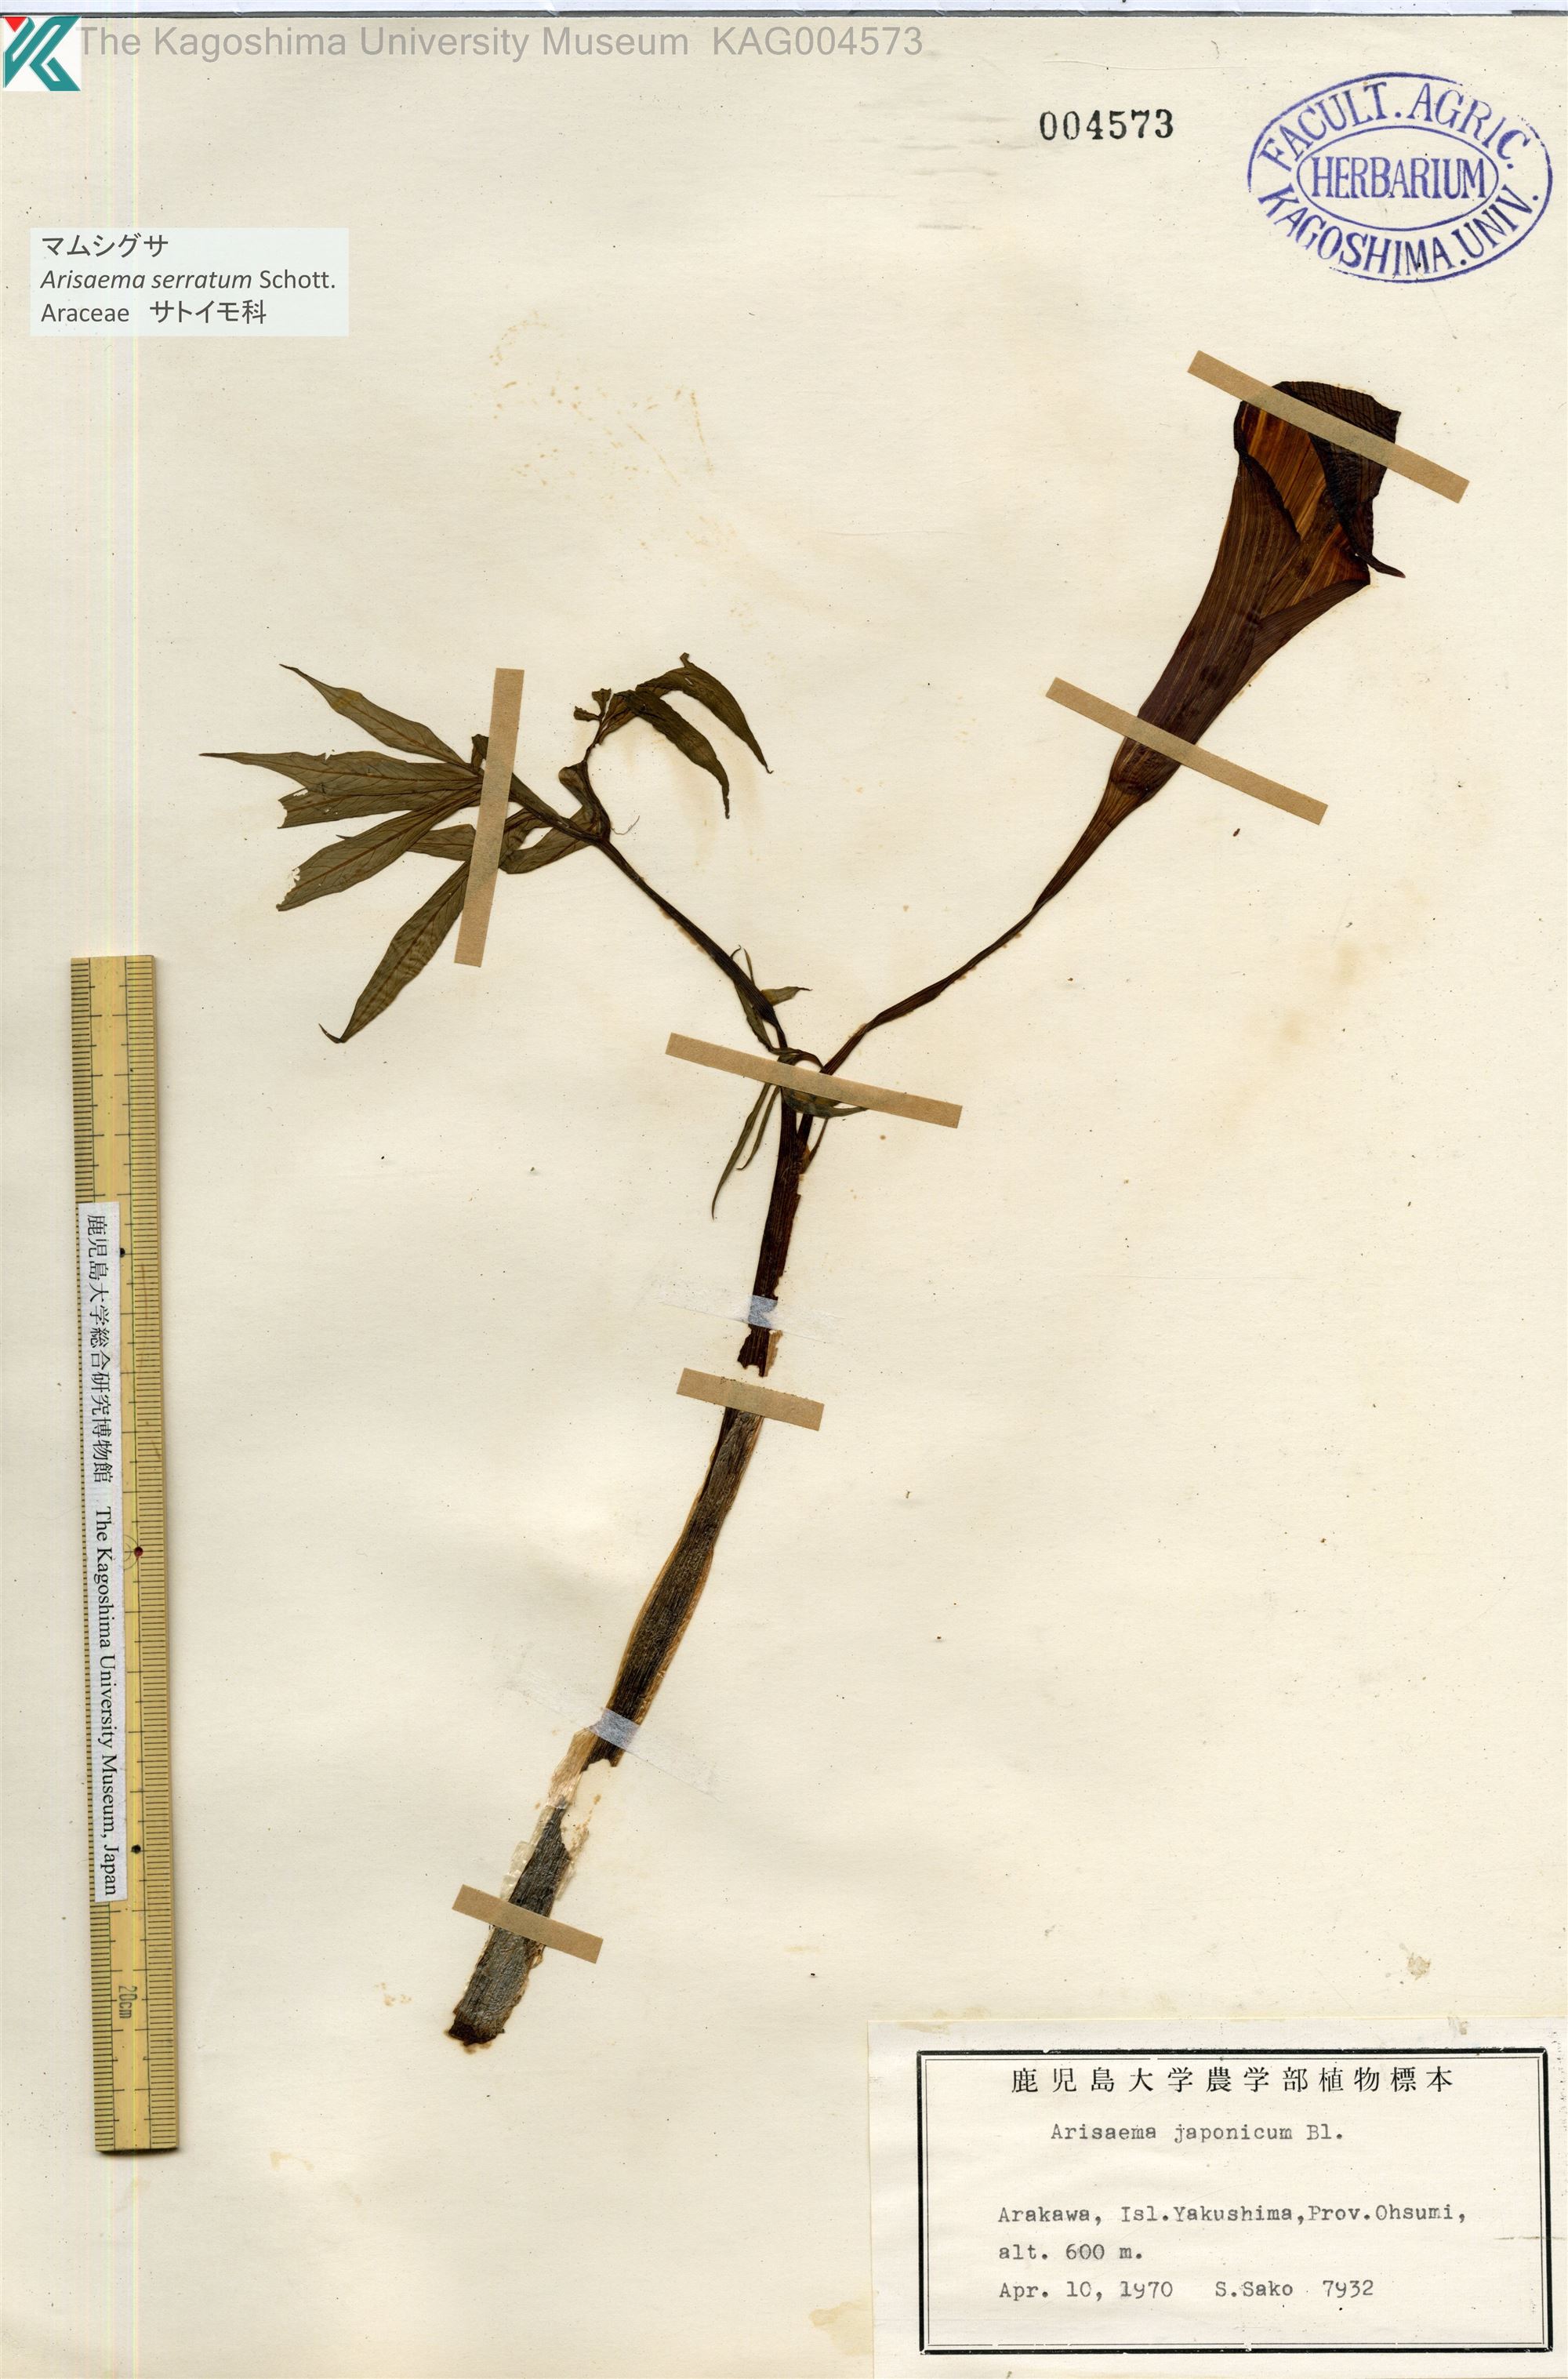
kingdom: Plantae
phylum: Tracheophyta
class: Liliopsida
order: Alismatales
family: Araceae
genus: Arisaema
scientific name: Arisaema serratum
